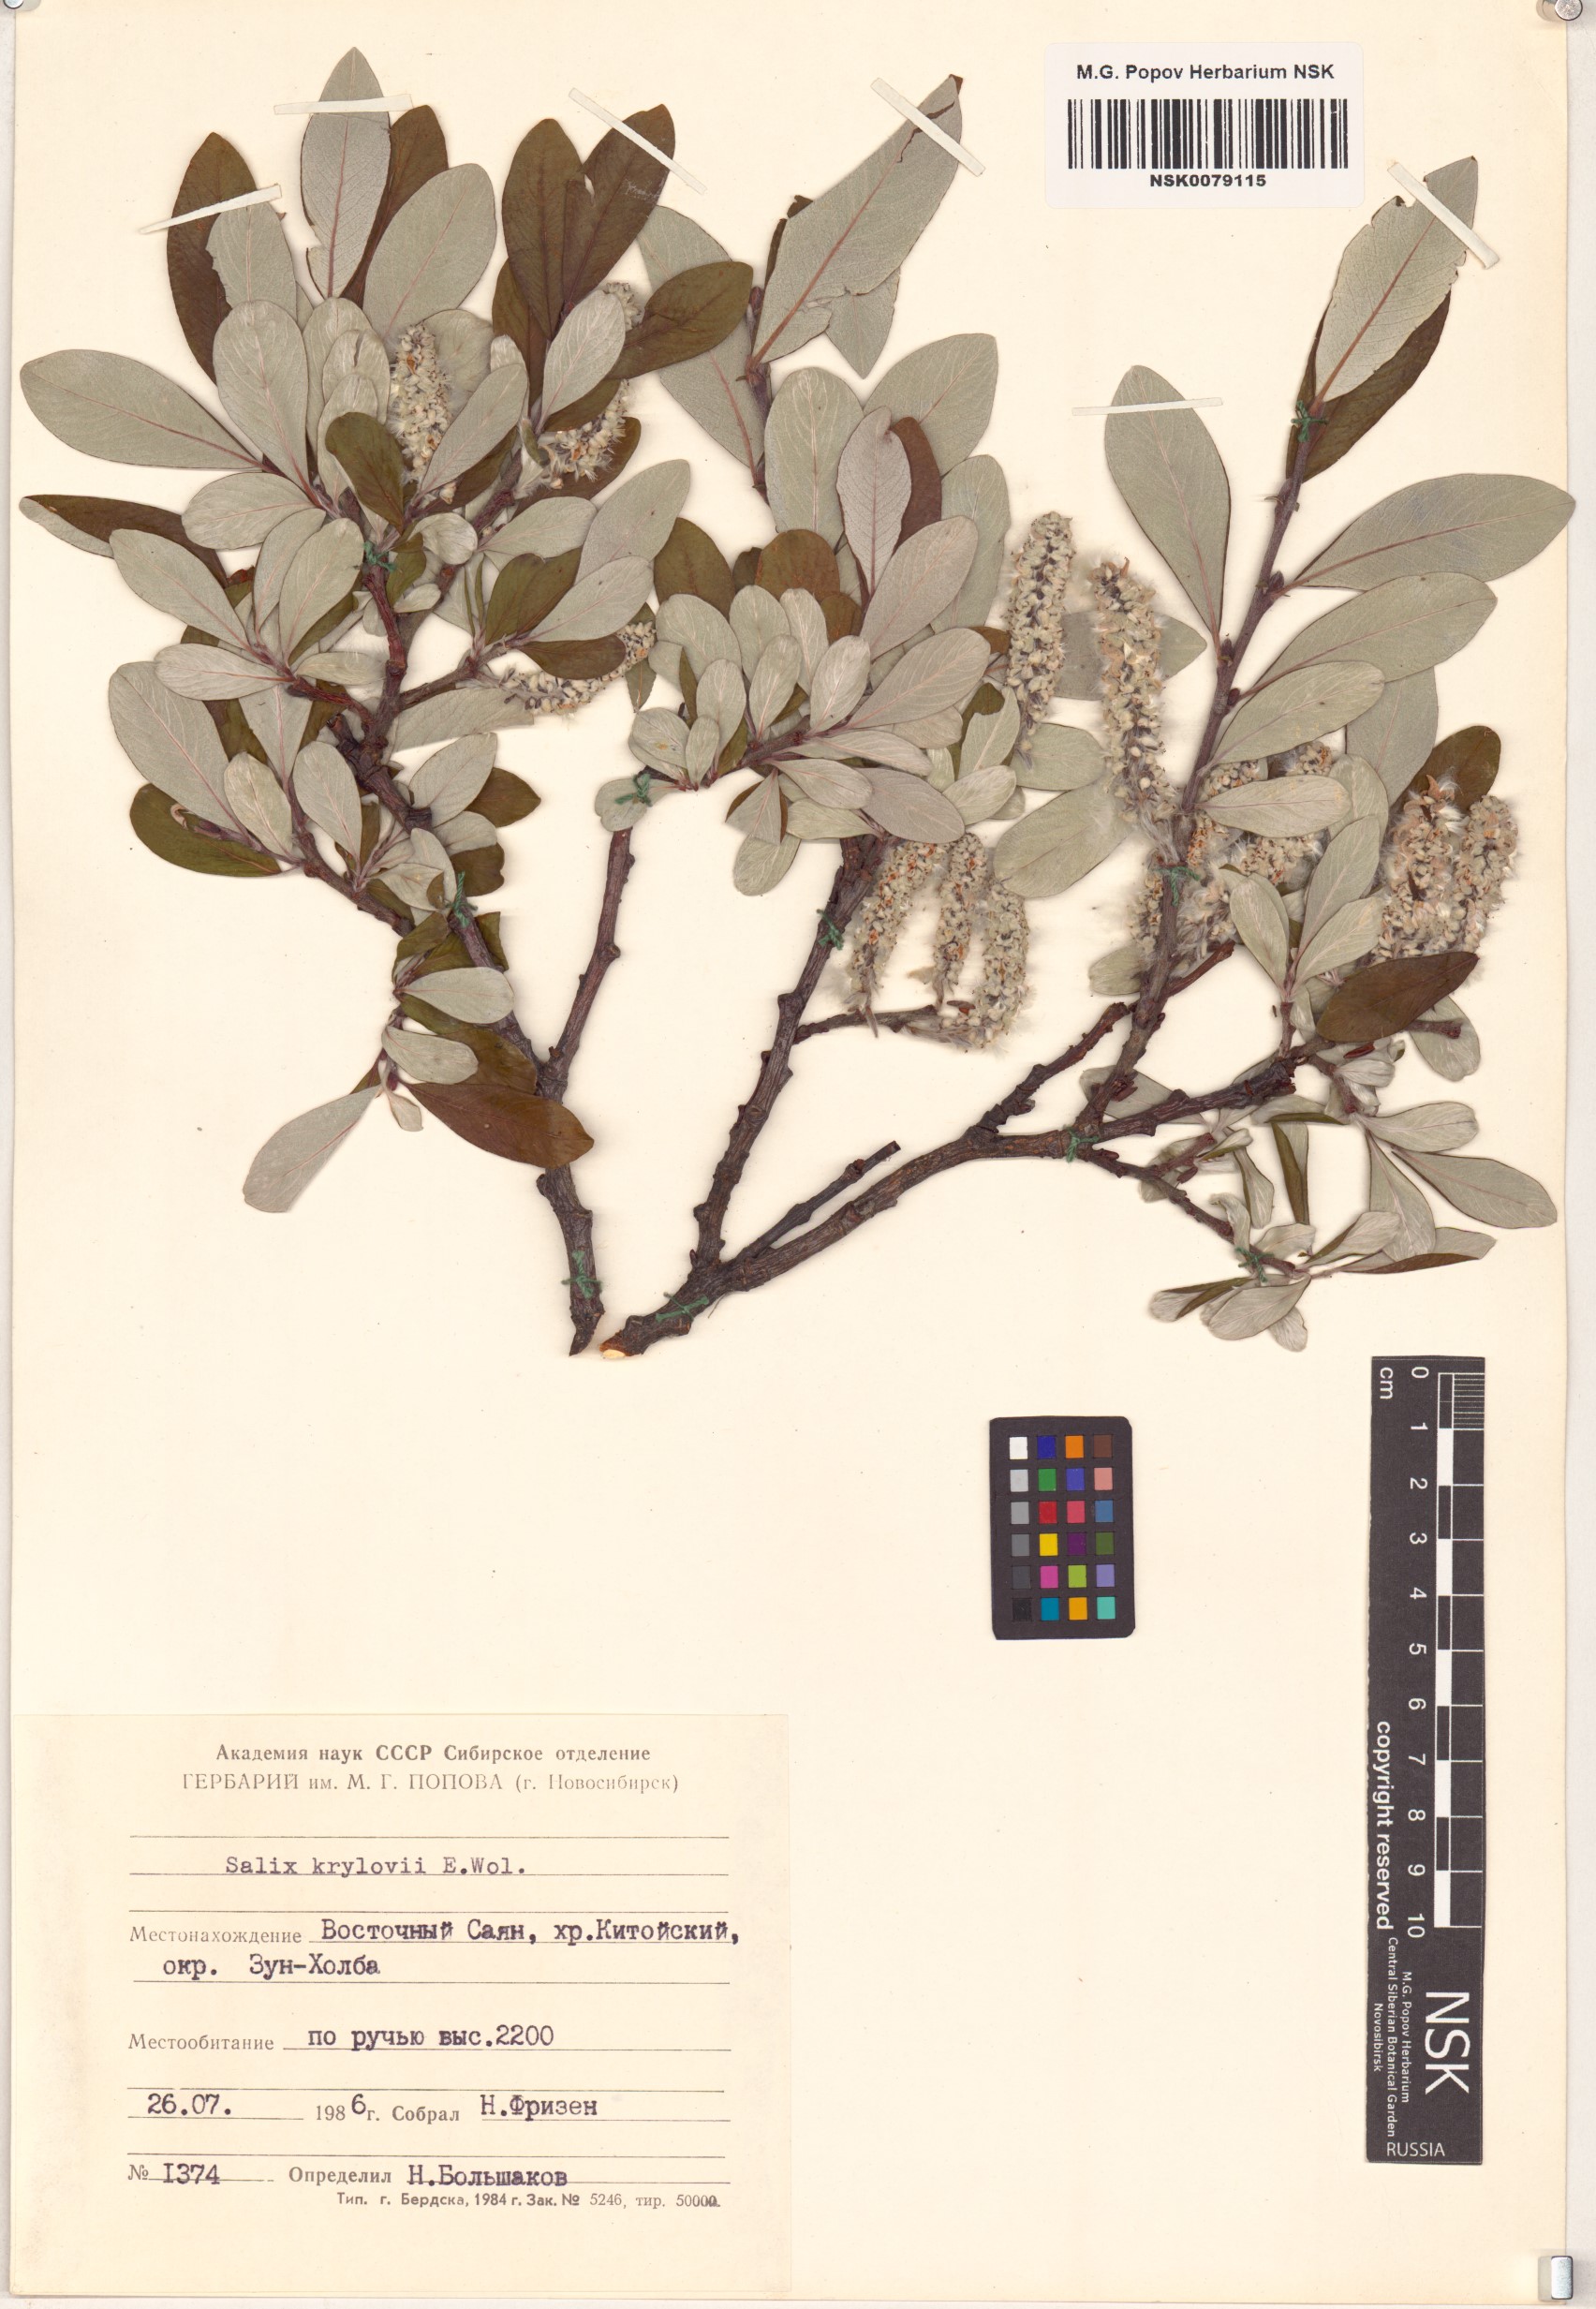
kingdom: Plantae
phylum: Tracheophyta
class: Magnoliopsida
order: Malpighiales
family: Salicaceae
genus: Salix
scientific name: Salix krylovii
